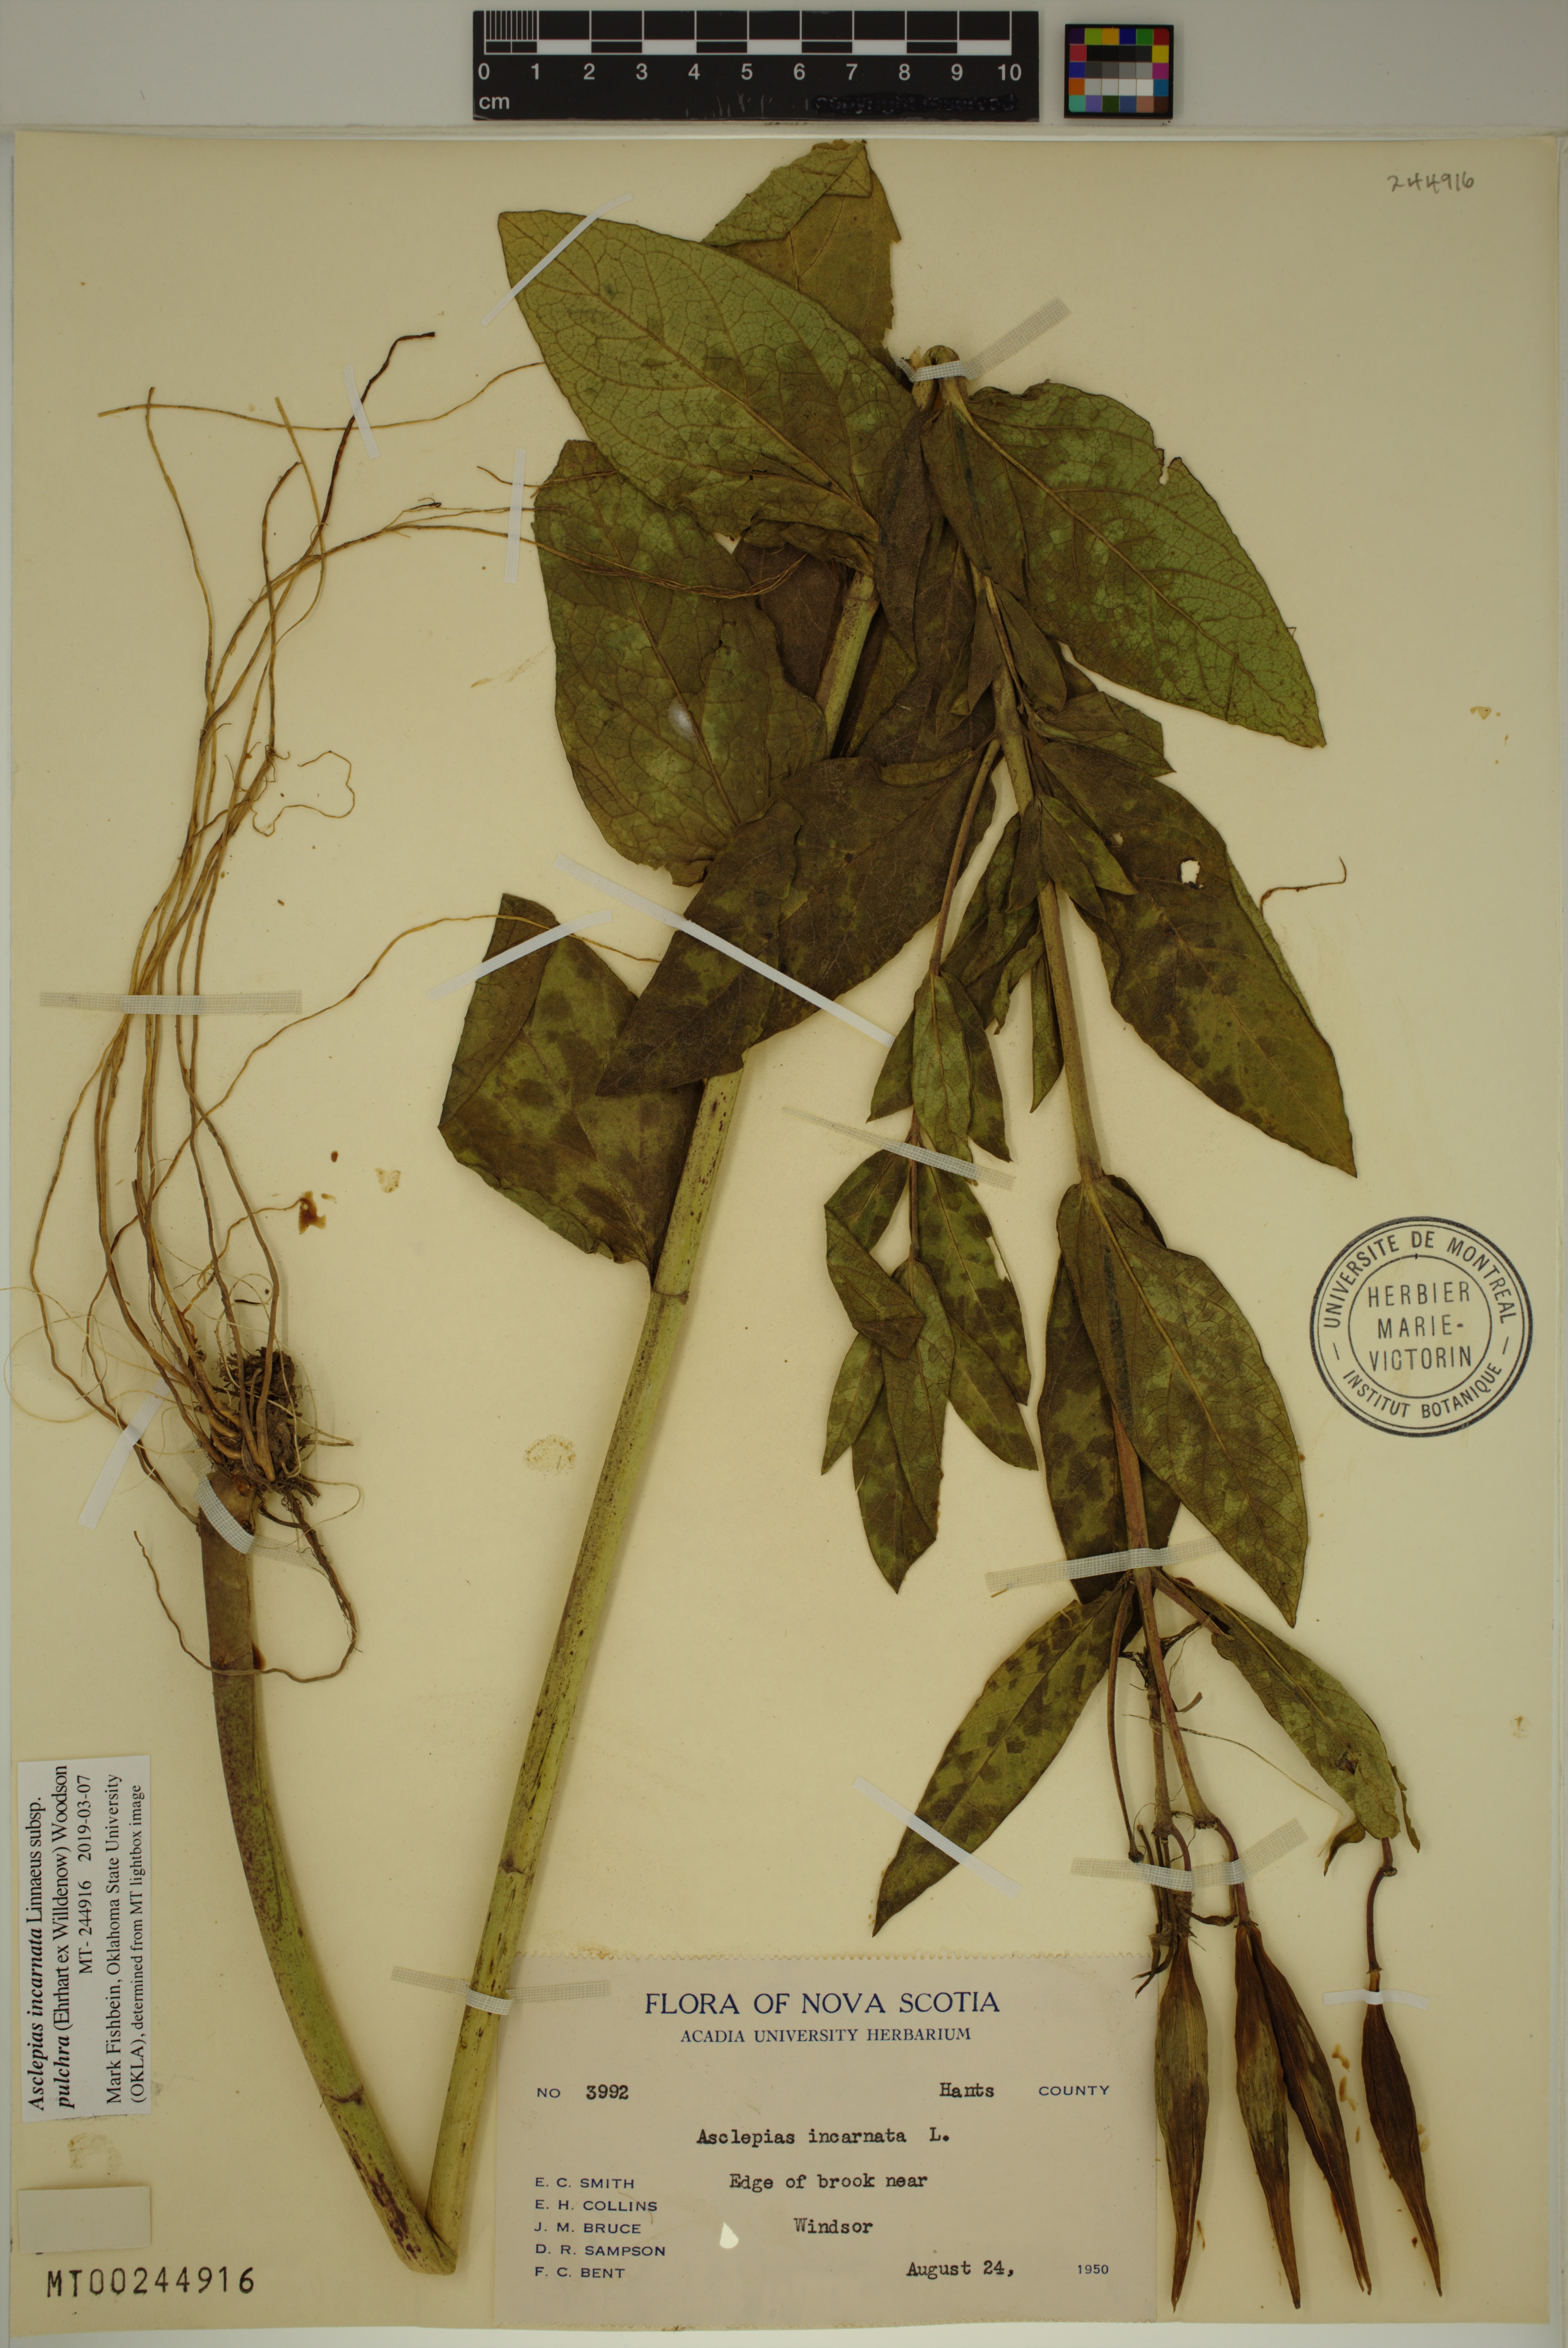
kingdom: Plantae
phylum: Tracheophyta
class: Magnoliopsida
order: Gentianales
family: Apocynaceae
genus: Asclepias
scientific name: Asclepias incarnata
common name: Swamp milkweed
